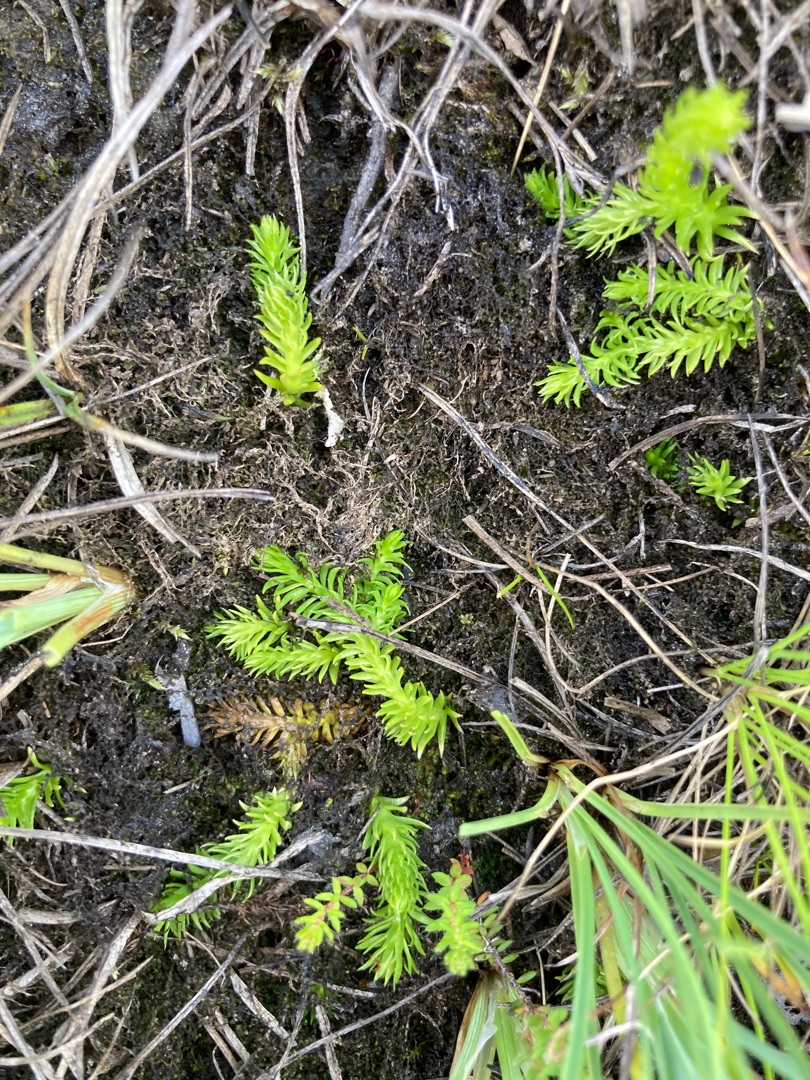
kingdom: Plantae
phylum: Tracheophyta
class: Lycopodiopsida
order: Lycopodiales
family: Lycopodiaceae
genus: Lycopodiella
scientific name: Lycopodiella inundata
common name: Liden ulvefod
